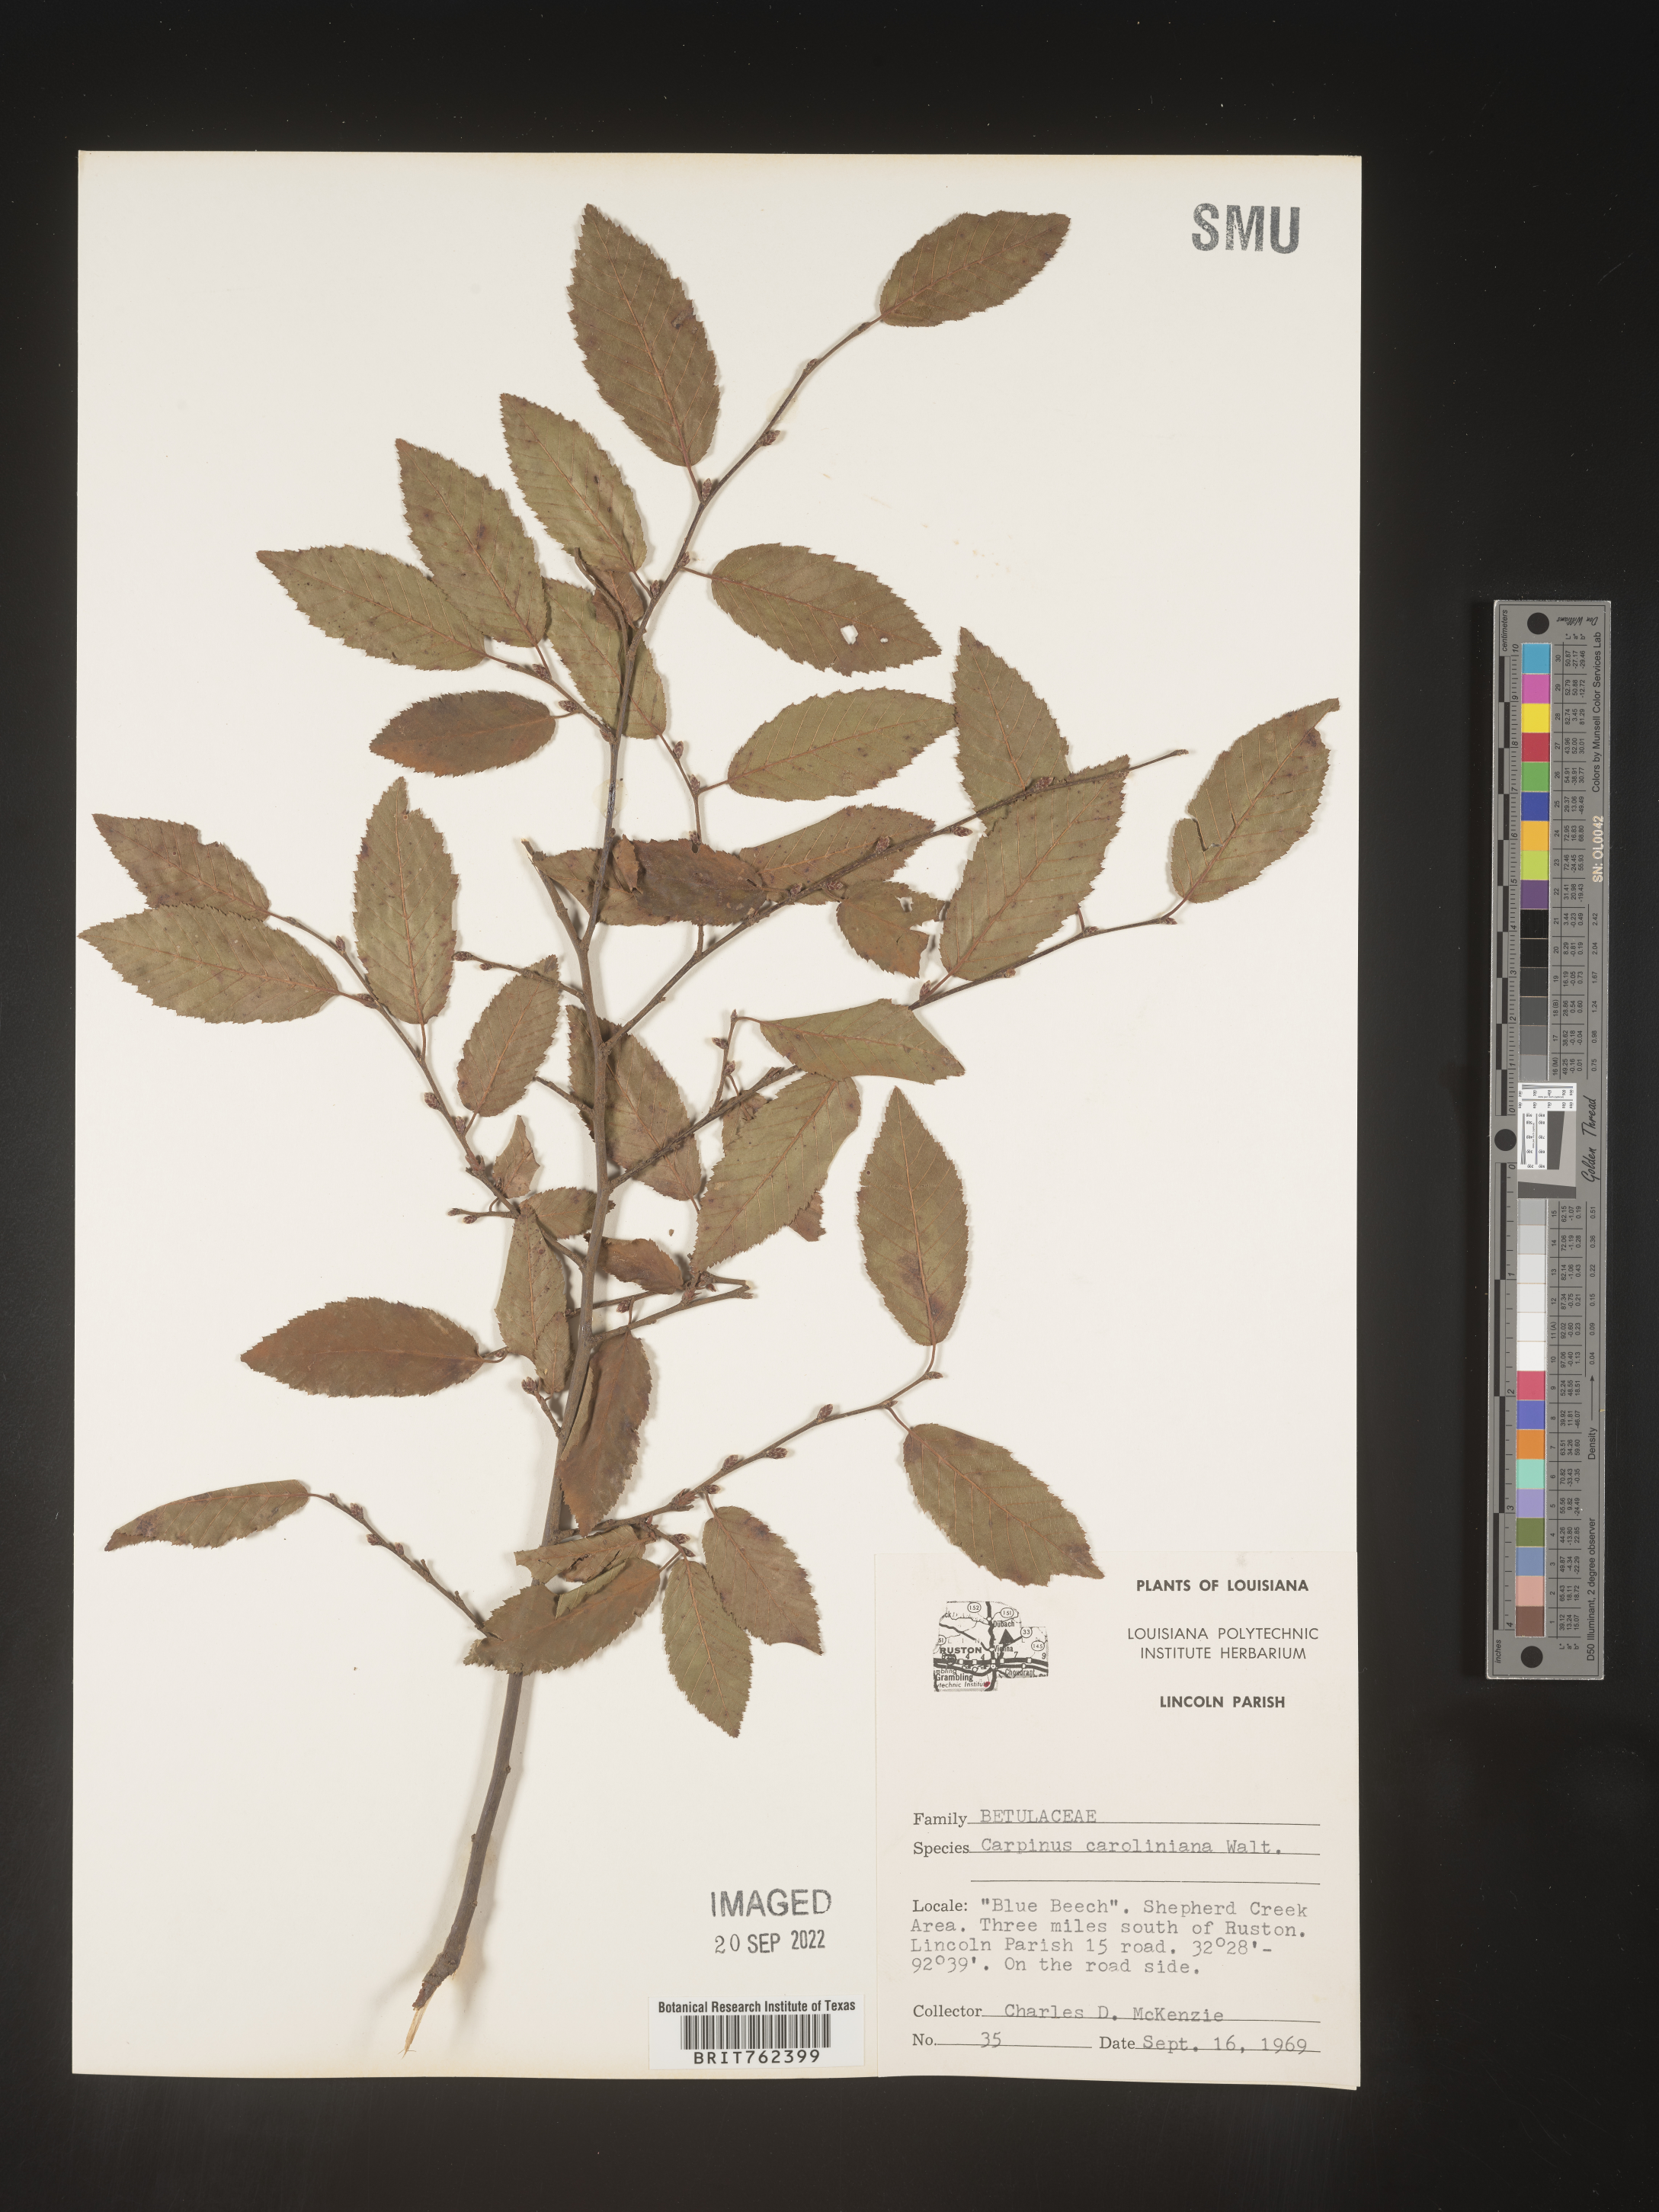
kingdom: Plantae
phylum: Tracheophyta
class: Magnoliopsida
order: Fagales
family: Betulaceae
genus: Carpinus
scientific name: Carpinus caroliniana
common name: American hornbeam
